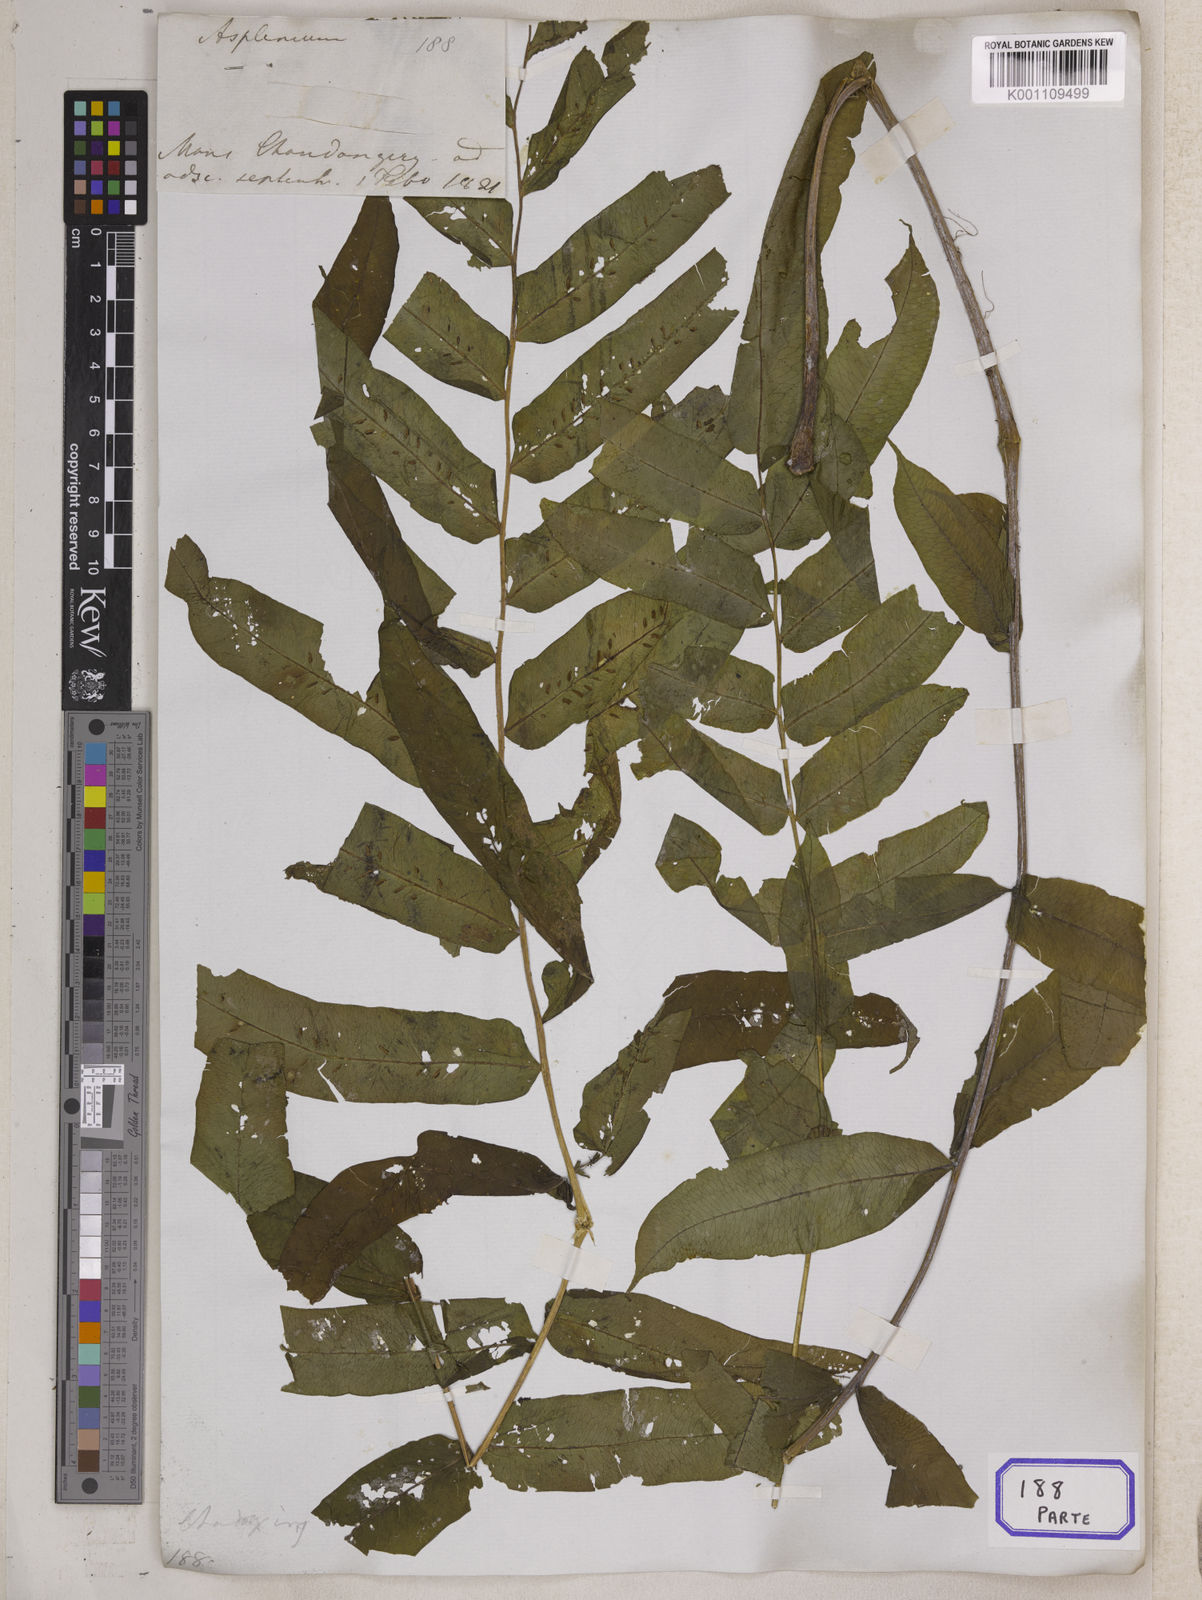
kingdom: Plantae
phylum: Tracheophyta
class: Polypodiopsida
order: Polypodiales
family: Diplaziopsidaceae
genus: Diplaziopsis
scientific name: Diplaziopsis javanica
